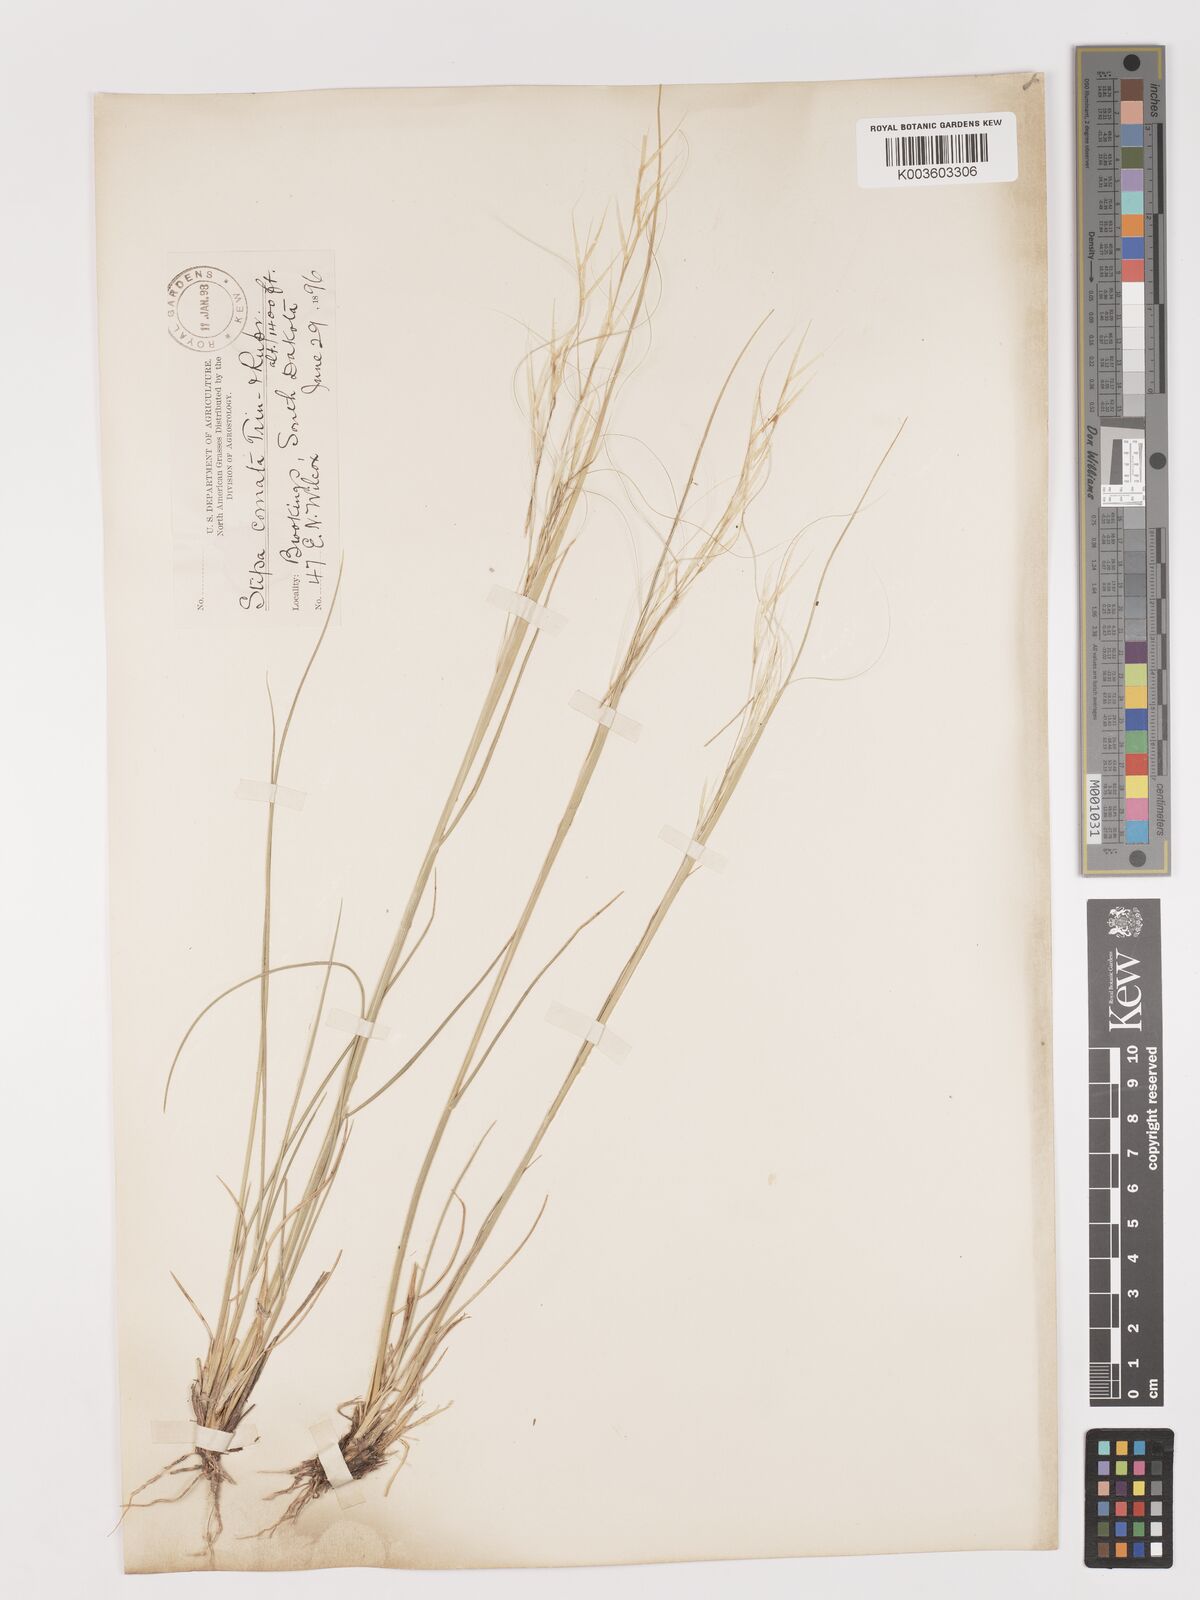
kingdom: Plantae
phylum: Tracheophyta
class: Liliopsida
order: Poales
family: Poaceae
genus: Stipa
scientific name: Stipa
